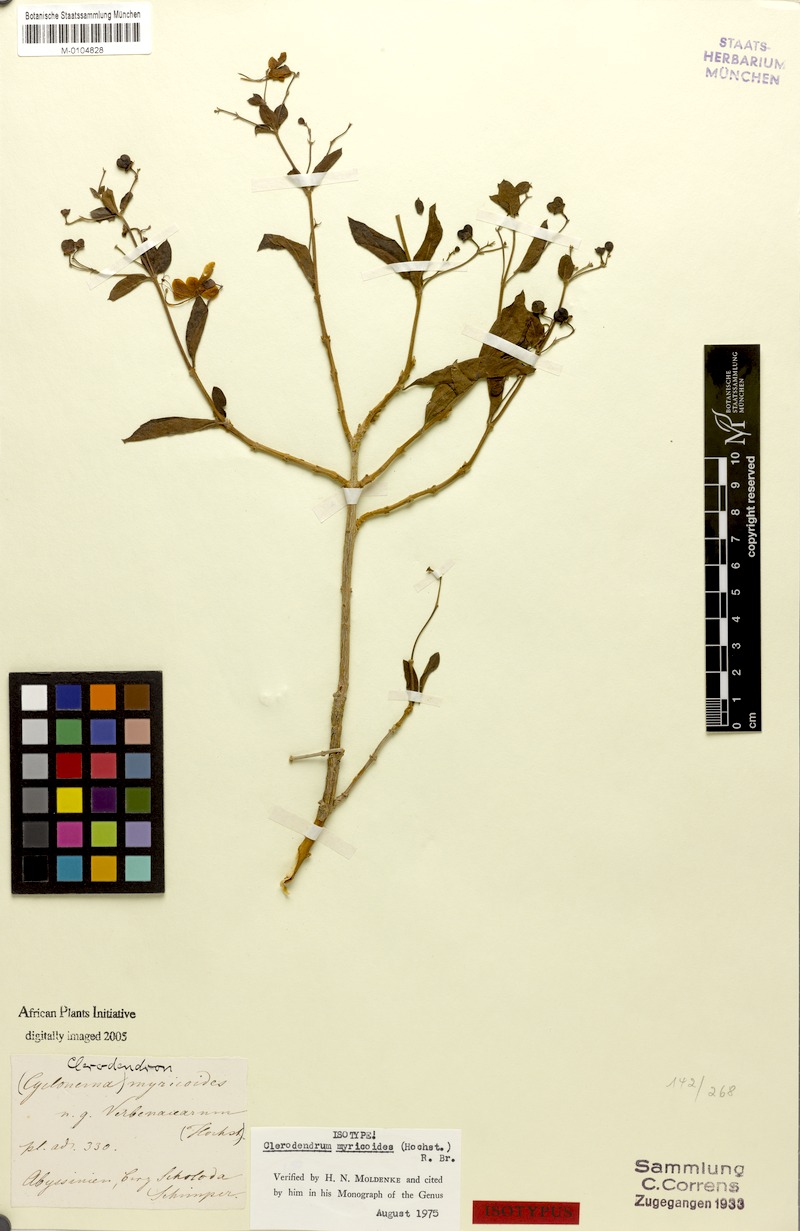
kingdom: Plantae
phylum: Tracheophyta
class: Magnoliopsida
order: Lamiales
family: Lamiaceae
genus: Clerodendrum
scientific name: Clerodendrum myricoides
